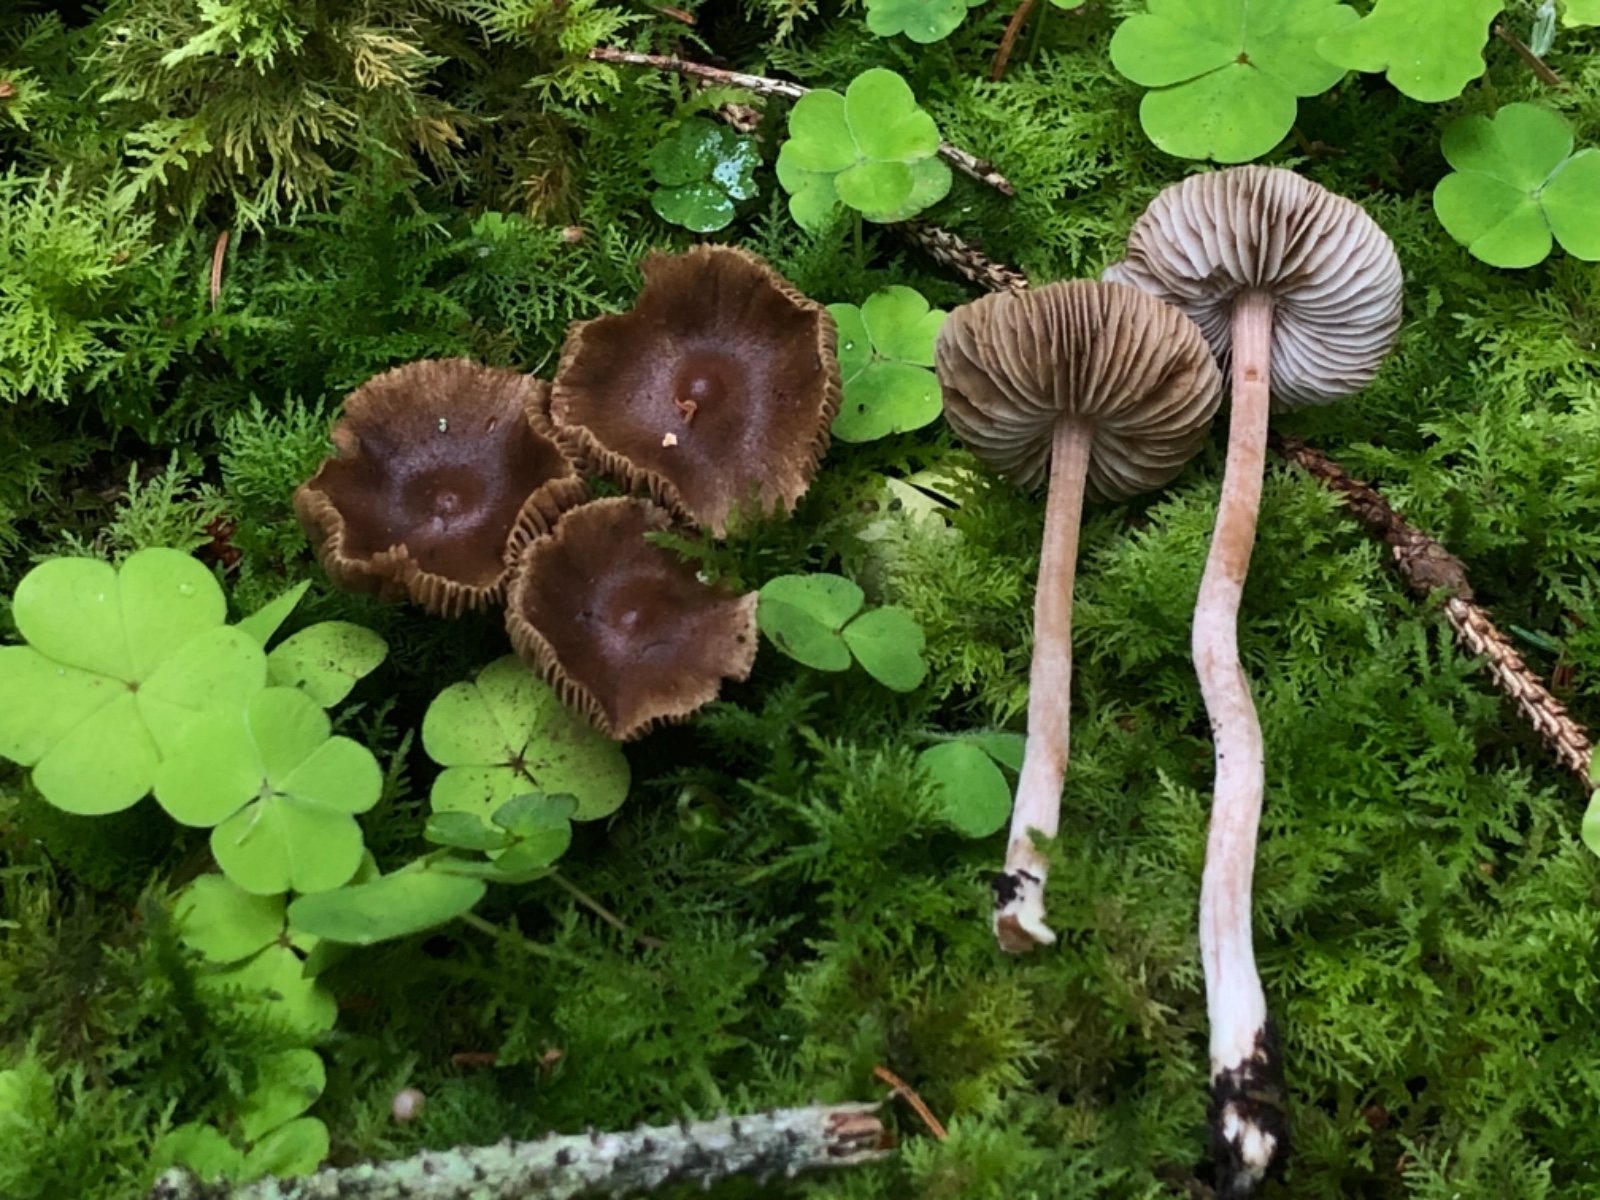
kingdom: Fungi
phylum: Basidiomycota
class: Agaricomycetes
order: Agaricales
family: Inocybaceae
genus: Inocybe
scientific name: Inocybe involuta
